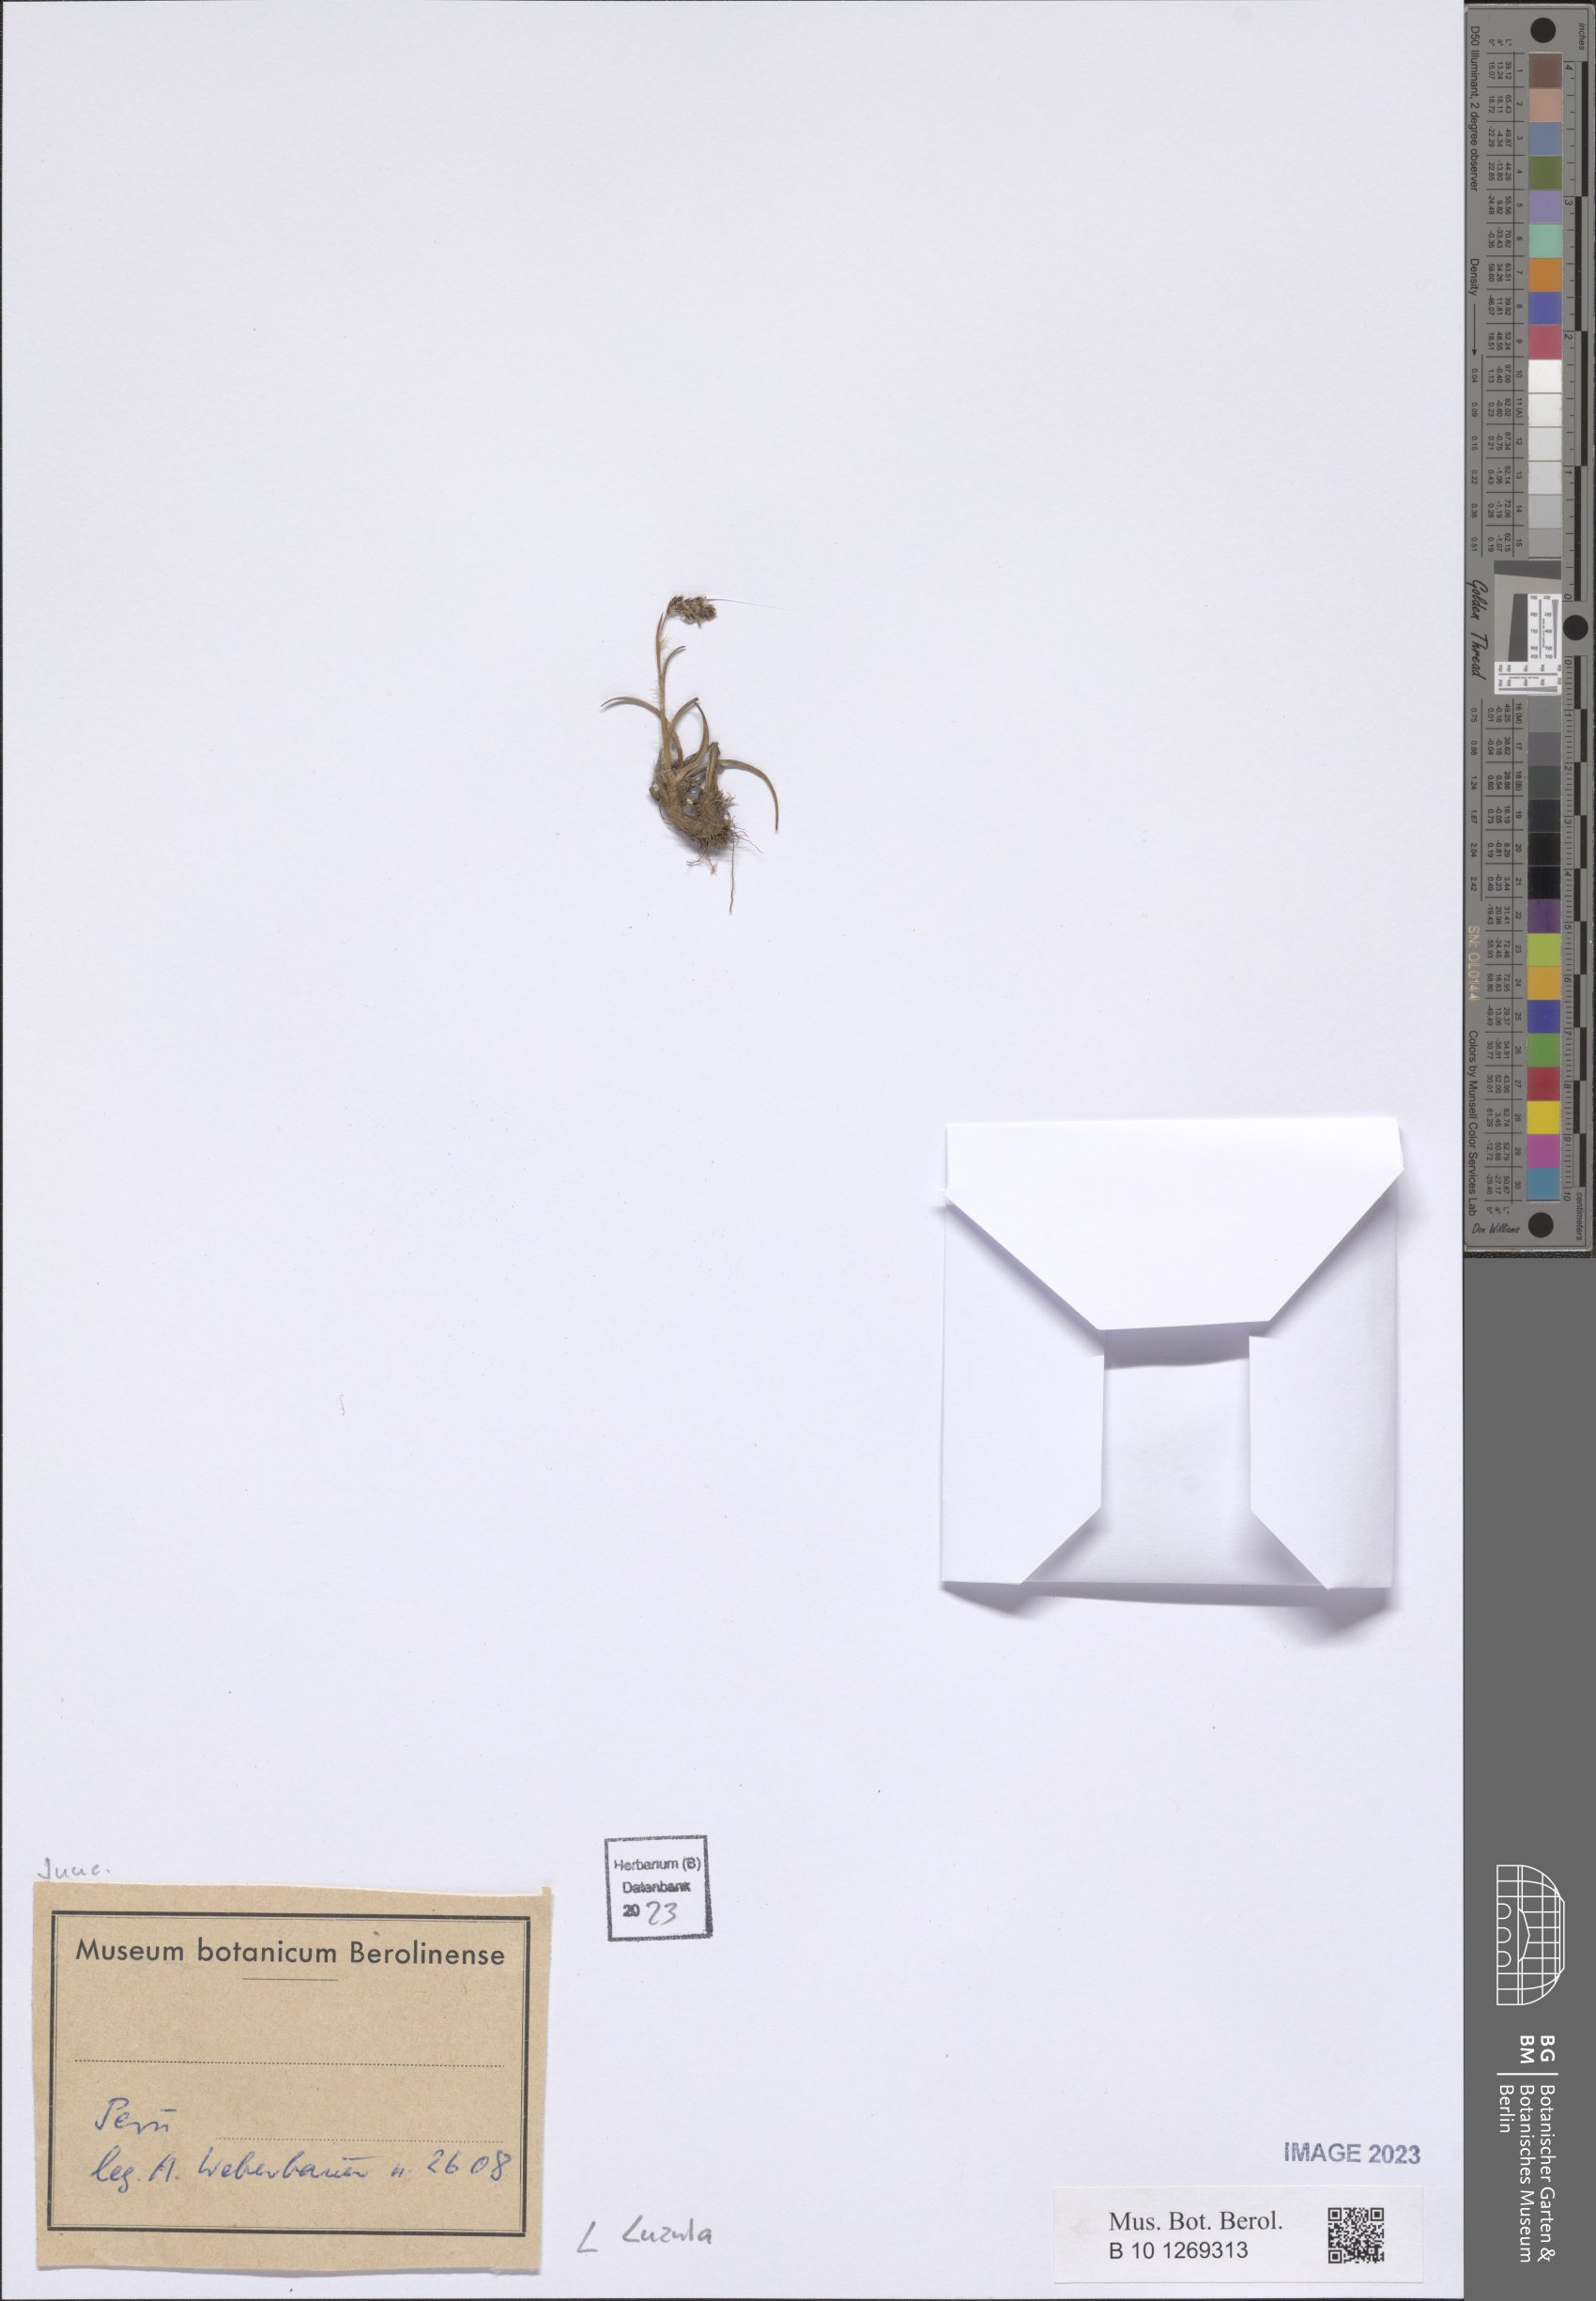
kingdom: Plantae
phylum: Tracheophyta
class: Liliopsida
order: Poales
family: Juncaceae
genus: Luzula
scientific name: Luzula
